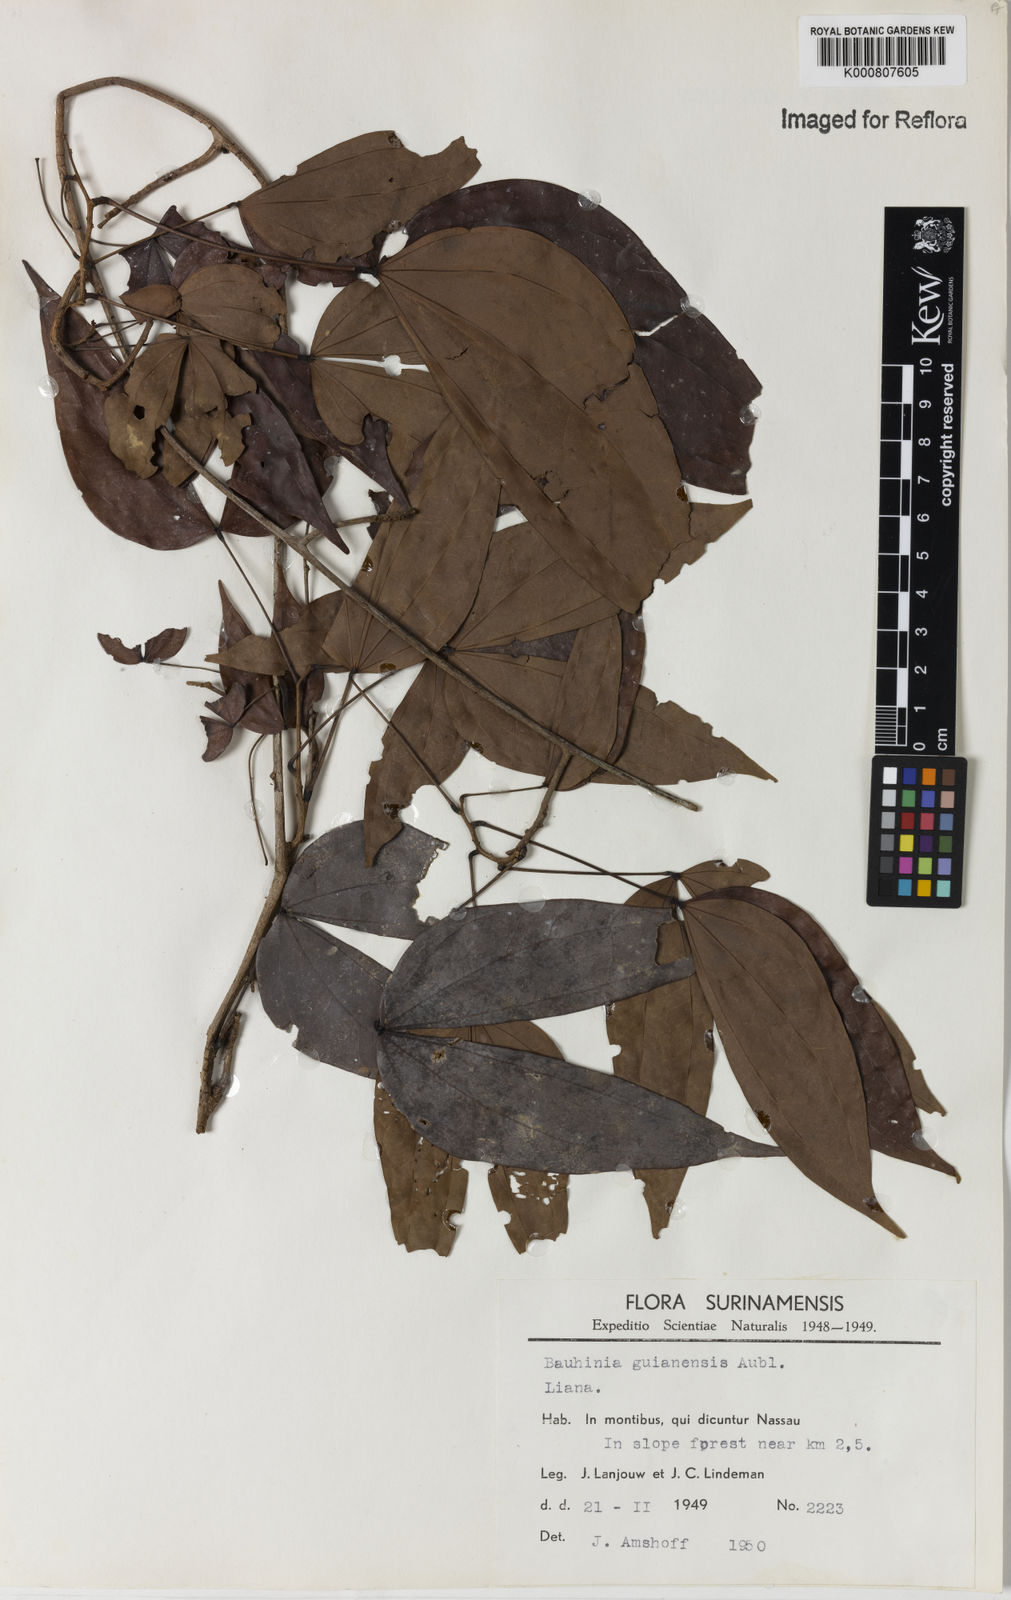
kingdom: Plantae
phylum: Tracheophyta
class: Magnoliopsida
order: Fabales
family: Fabaceae
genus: Schnella
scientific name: Schnella guianensis
